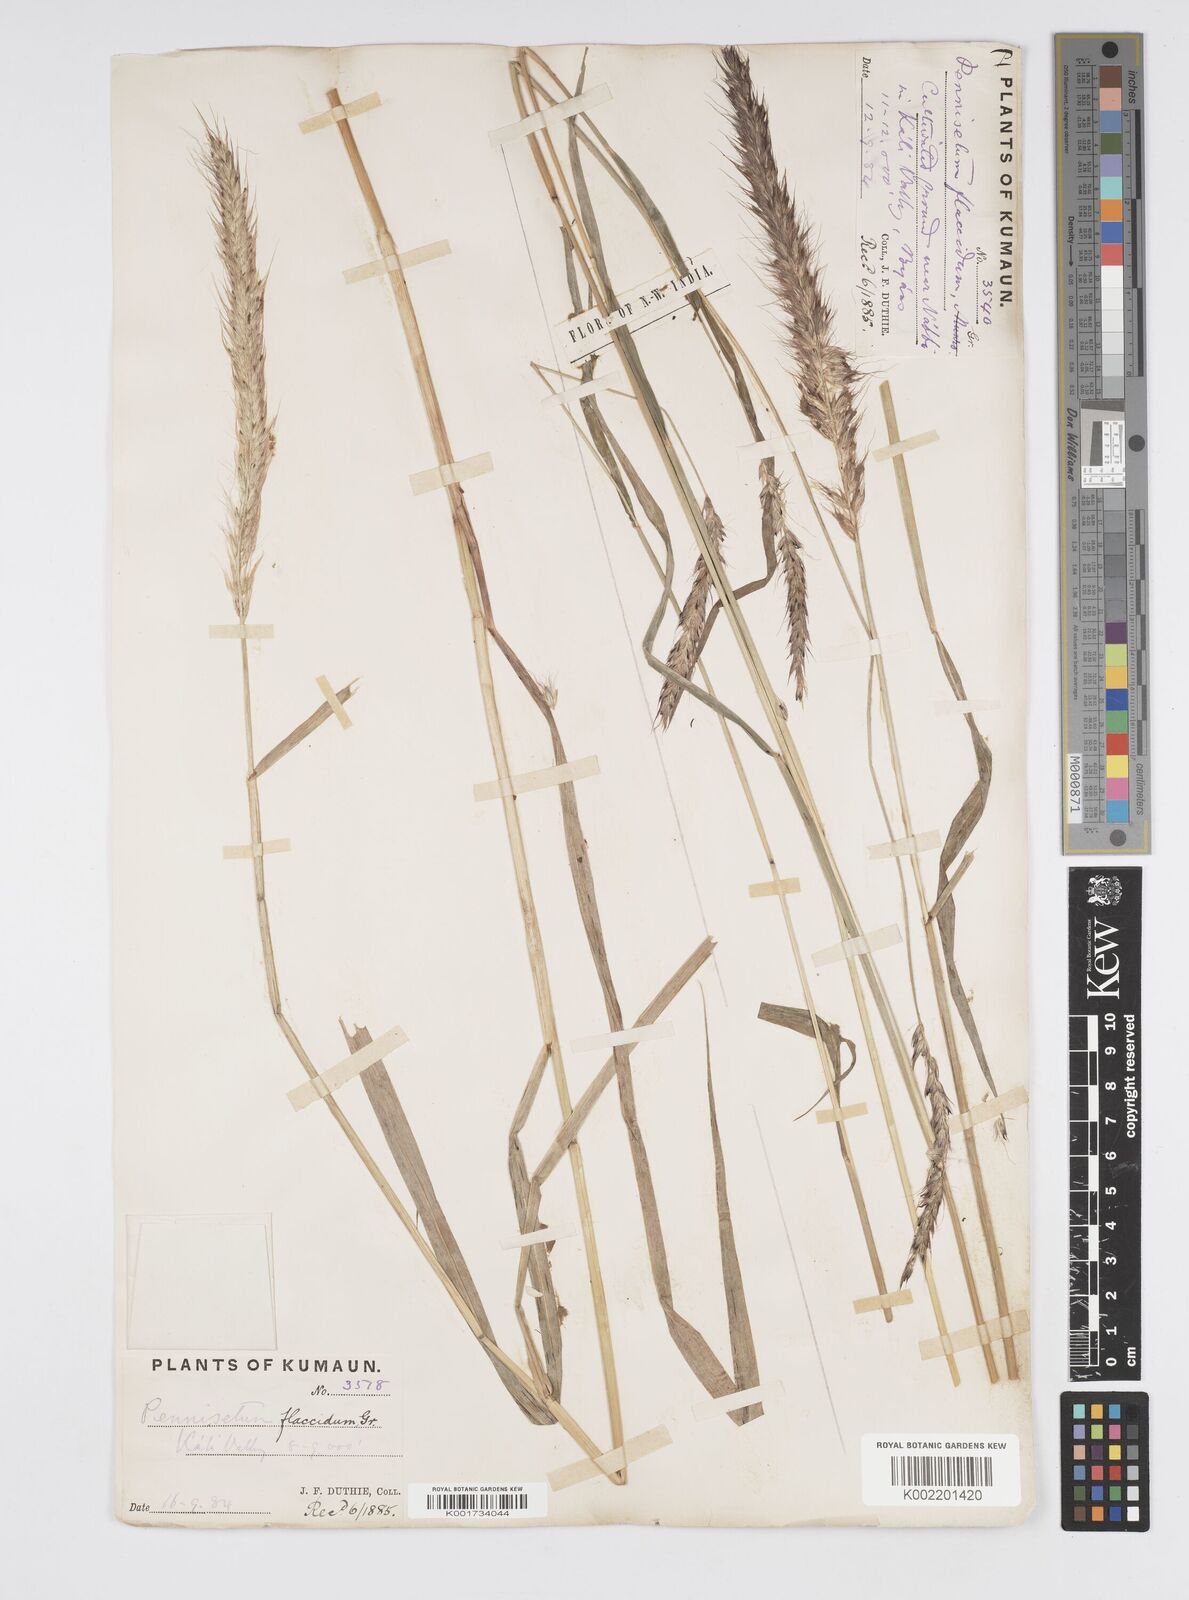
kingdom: Plantae
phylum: Tracheophyta
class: Liliopsida
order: Poales
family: Poaceae
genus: Cenchrus
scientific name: Cenchrus flaccidus
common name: Flaccid grass
